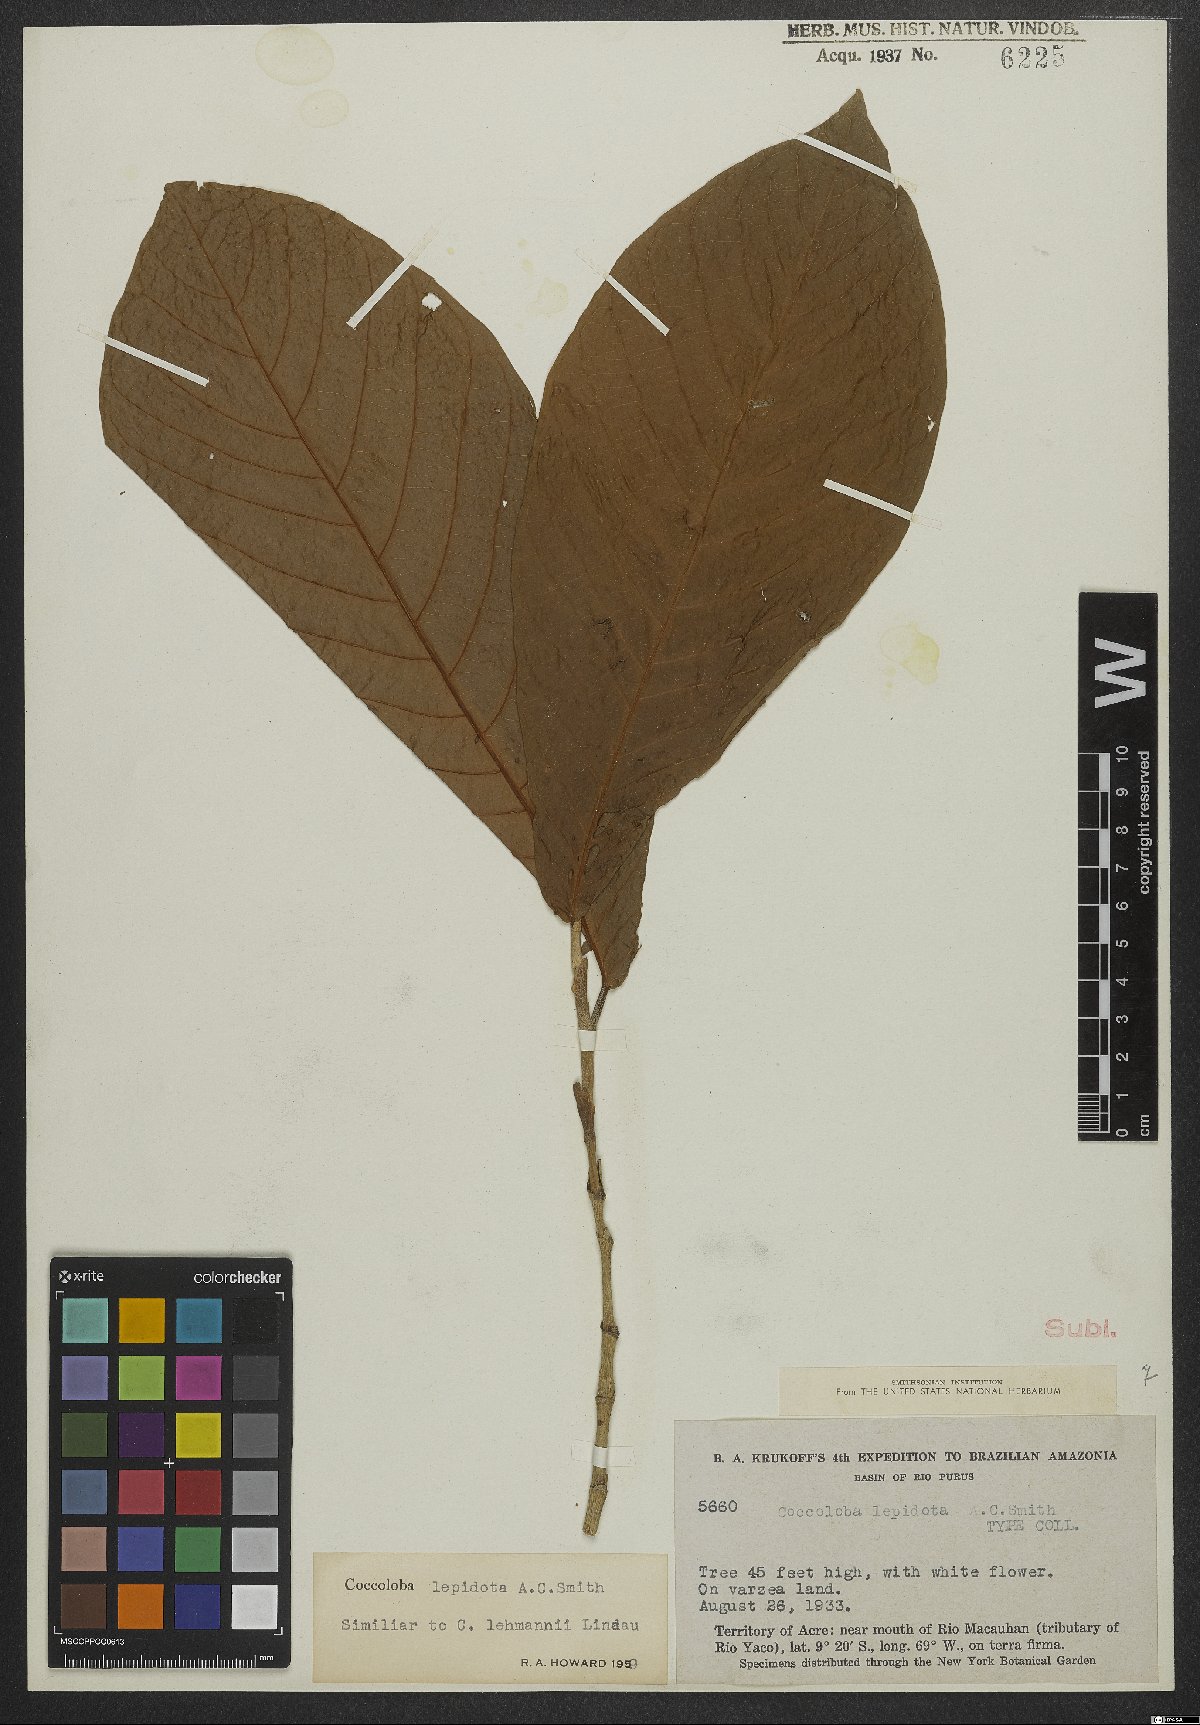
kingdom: Plantae
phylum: Tracheophyta
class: Magnoliopsida
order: Caryophyllales
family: Polygonaceae
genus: Coccoloba
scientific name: Coccoloba lepidota
